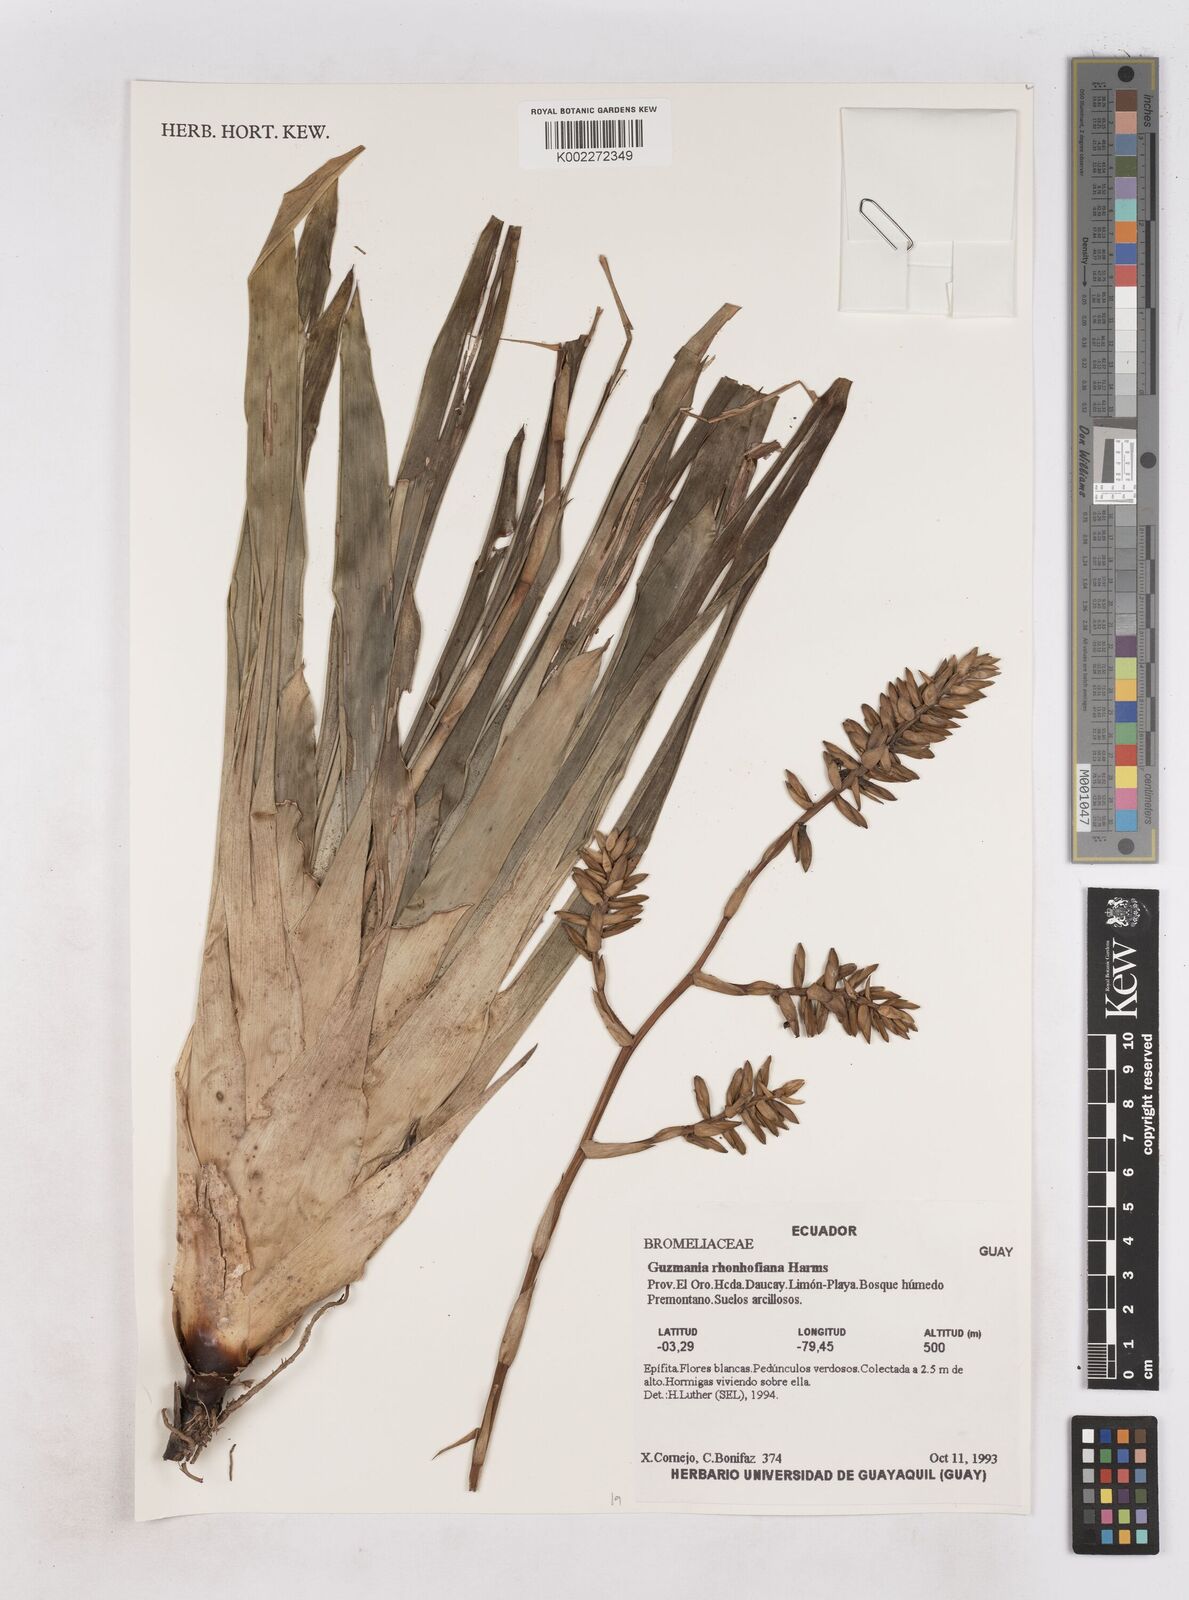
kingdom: Plantae
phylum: Tracheophyta
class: Liliopsida
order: Poales
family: Bromeliaceae
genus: Guzmania
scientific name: Guzmania rhonhofiana
